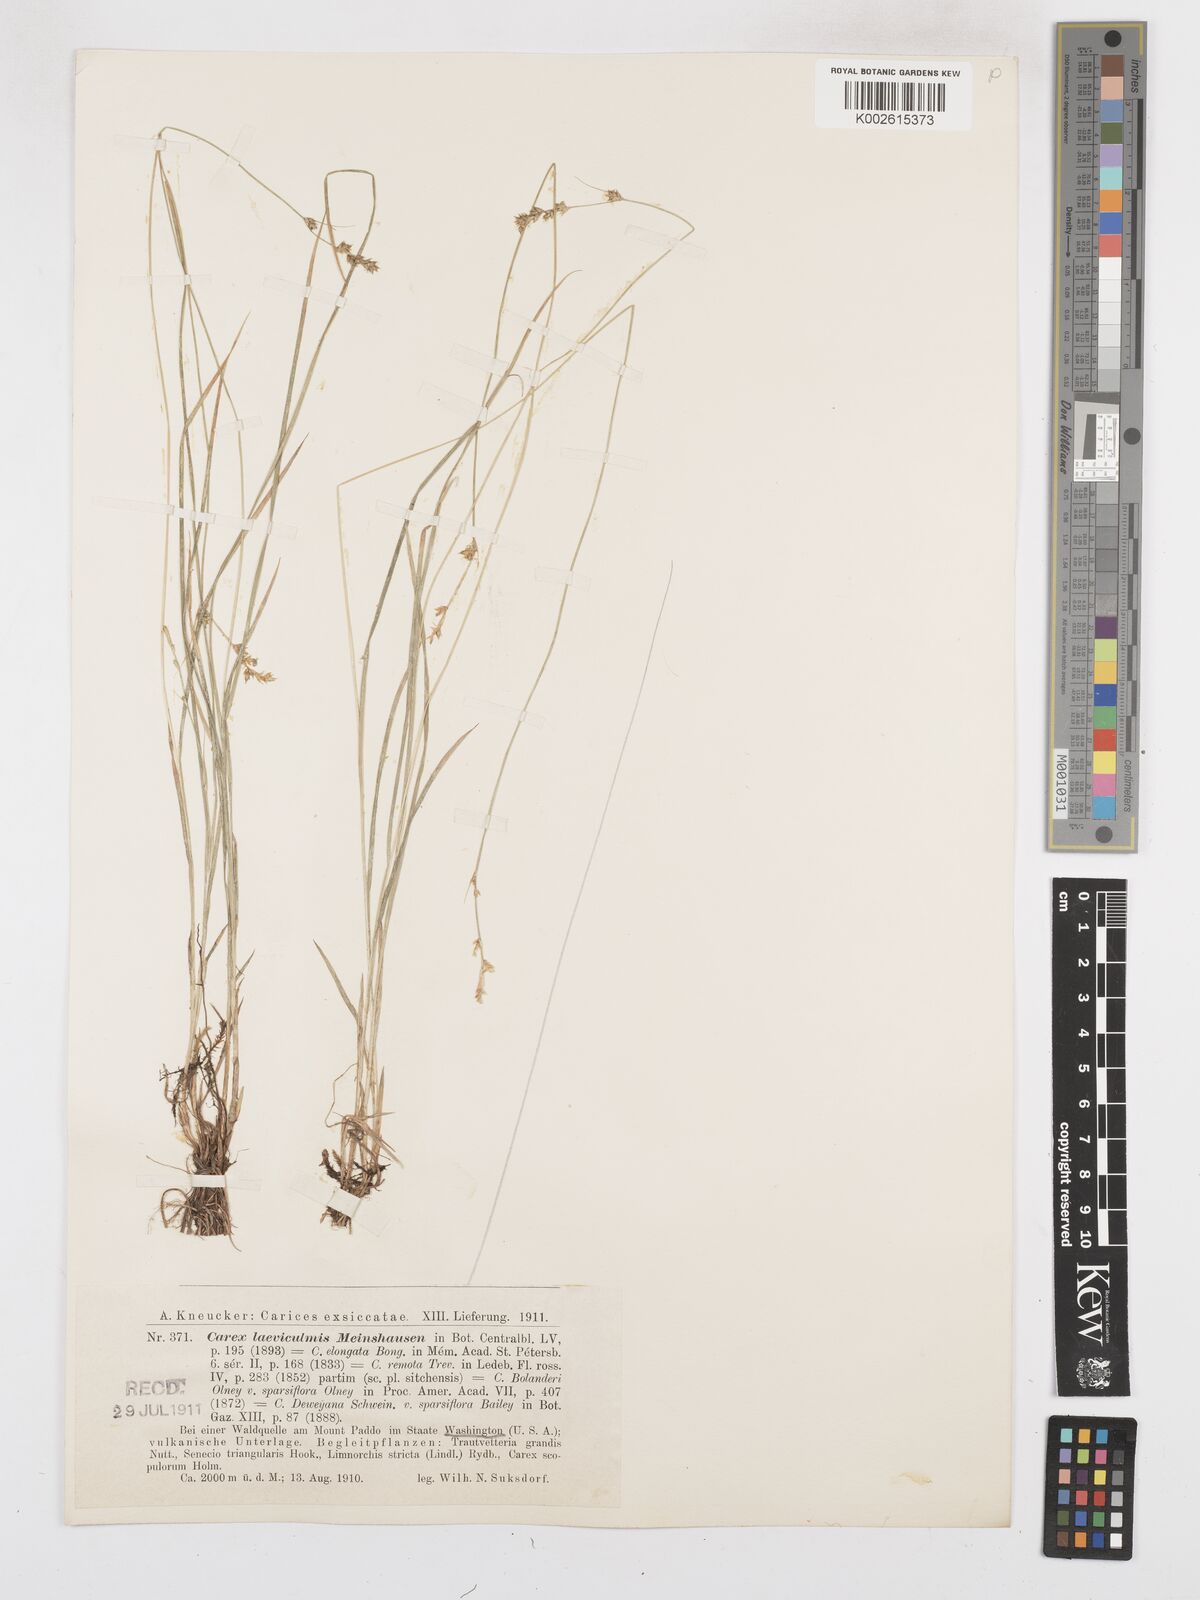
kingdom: Plantae
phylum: Tracheophyta
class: Liliopsida
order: Poales
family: Cyperaceae
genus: Carex
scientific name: Carex deweyana
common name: Dewey's sedge
